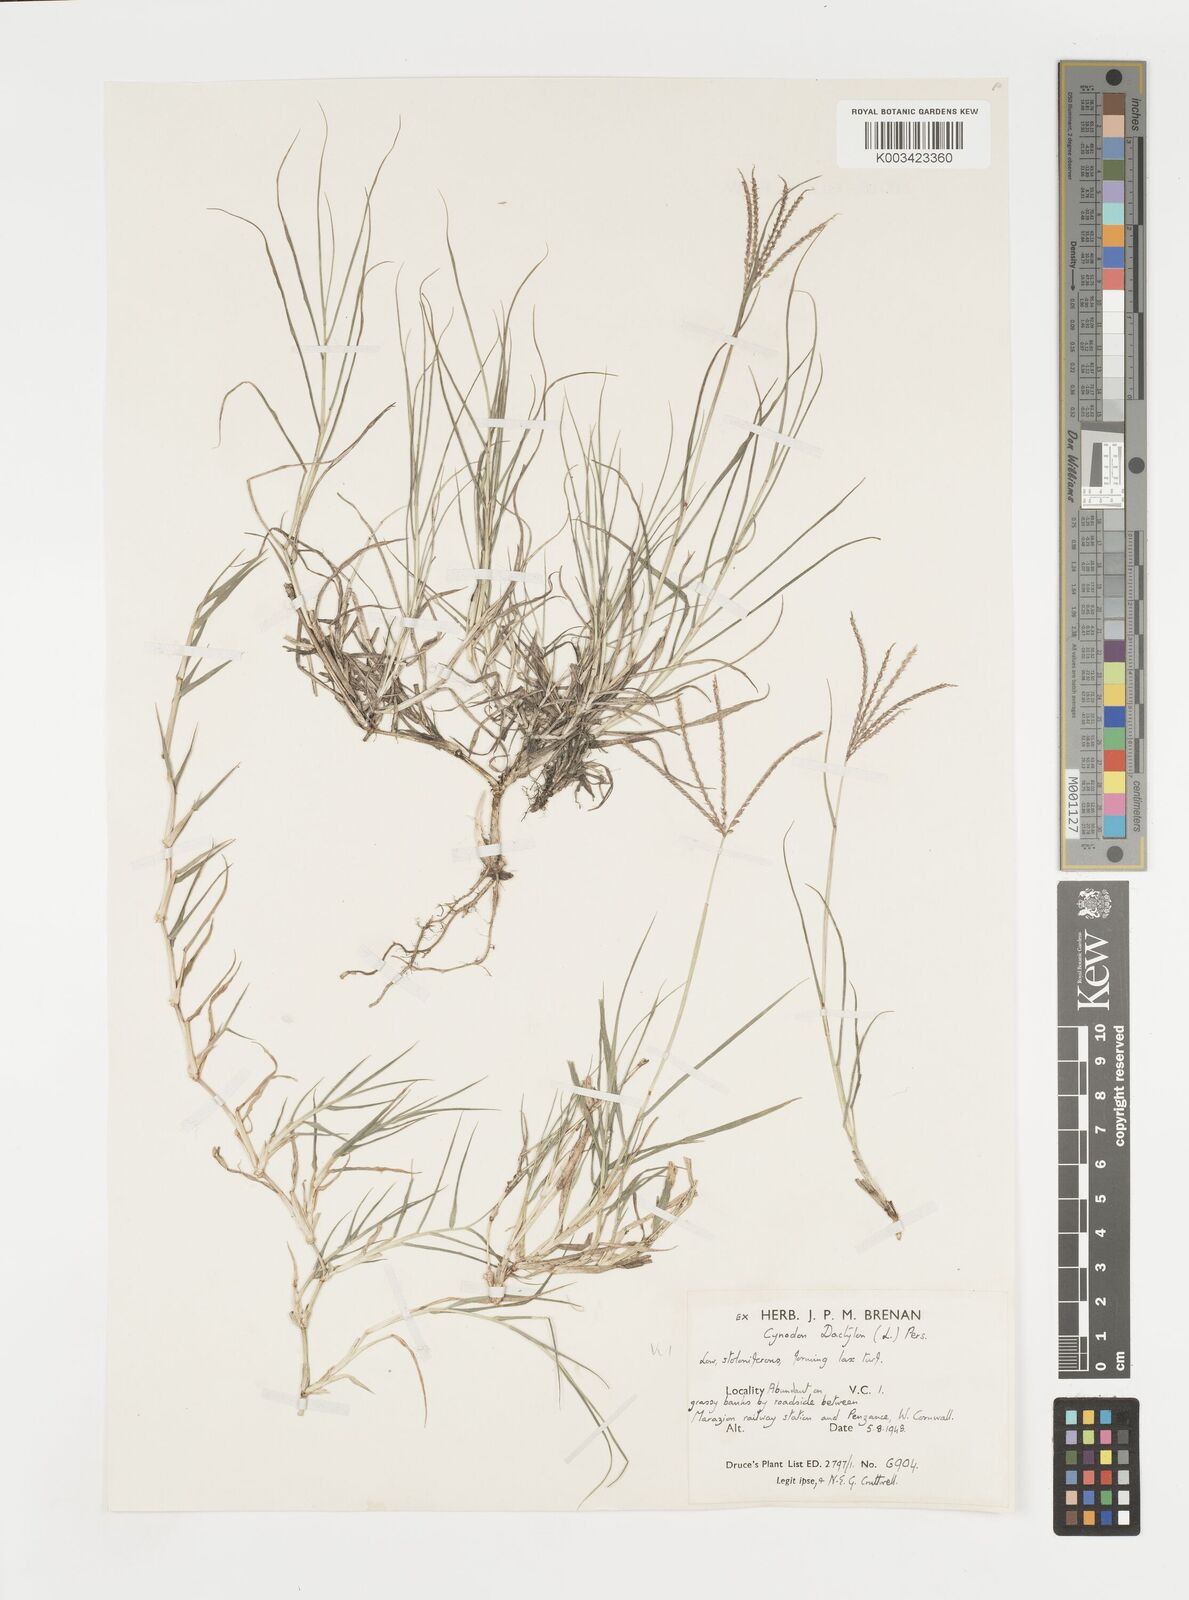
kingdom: Plantae
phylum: Tracheophyta
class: Liliopsida
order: Poales
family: Poaceae
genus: Cynodon
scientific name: Cynodon dactylon
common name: Bermuda grass
